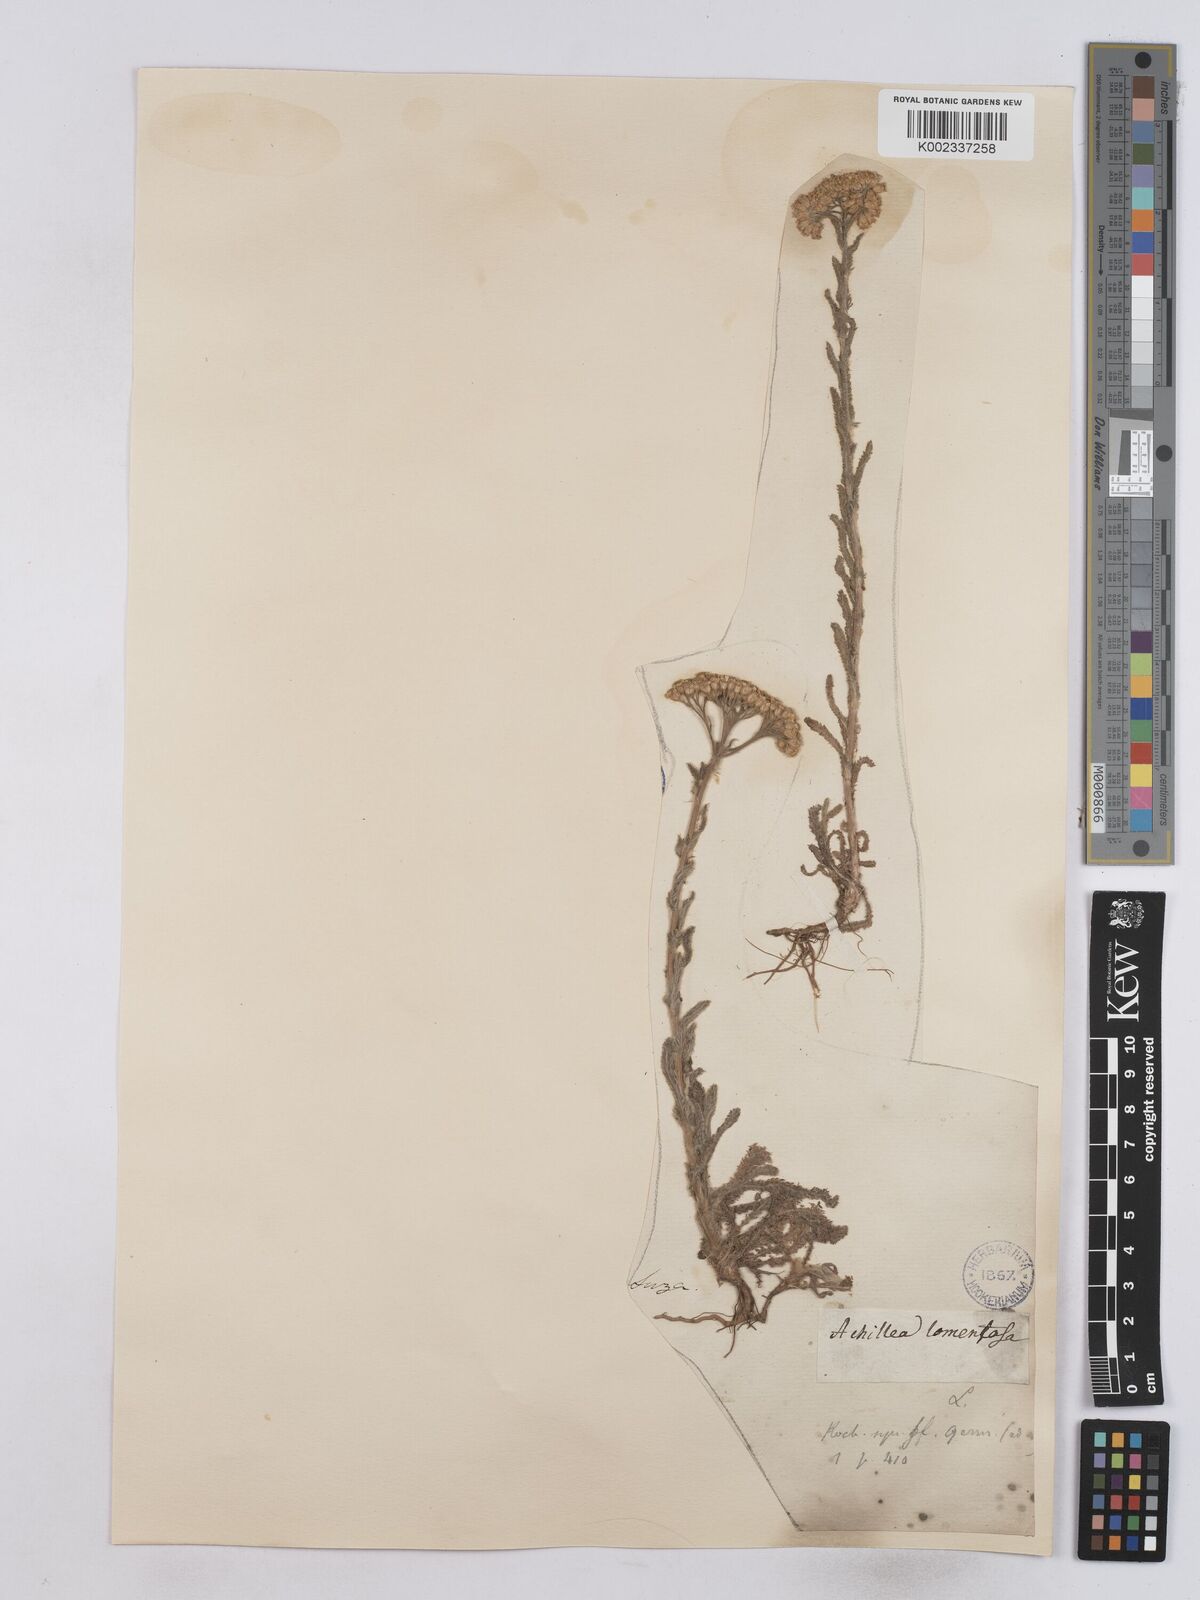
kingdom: Plantae
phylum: Tracheophyta
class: Magnoliopsida
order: Asterales
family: Asteraceae
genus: Achillea
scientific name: Achillea tomentosa
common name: Yellow milfoil
